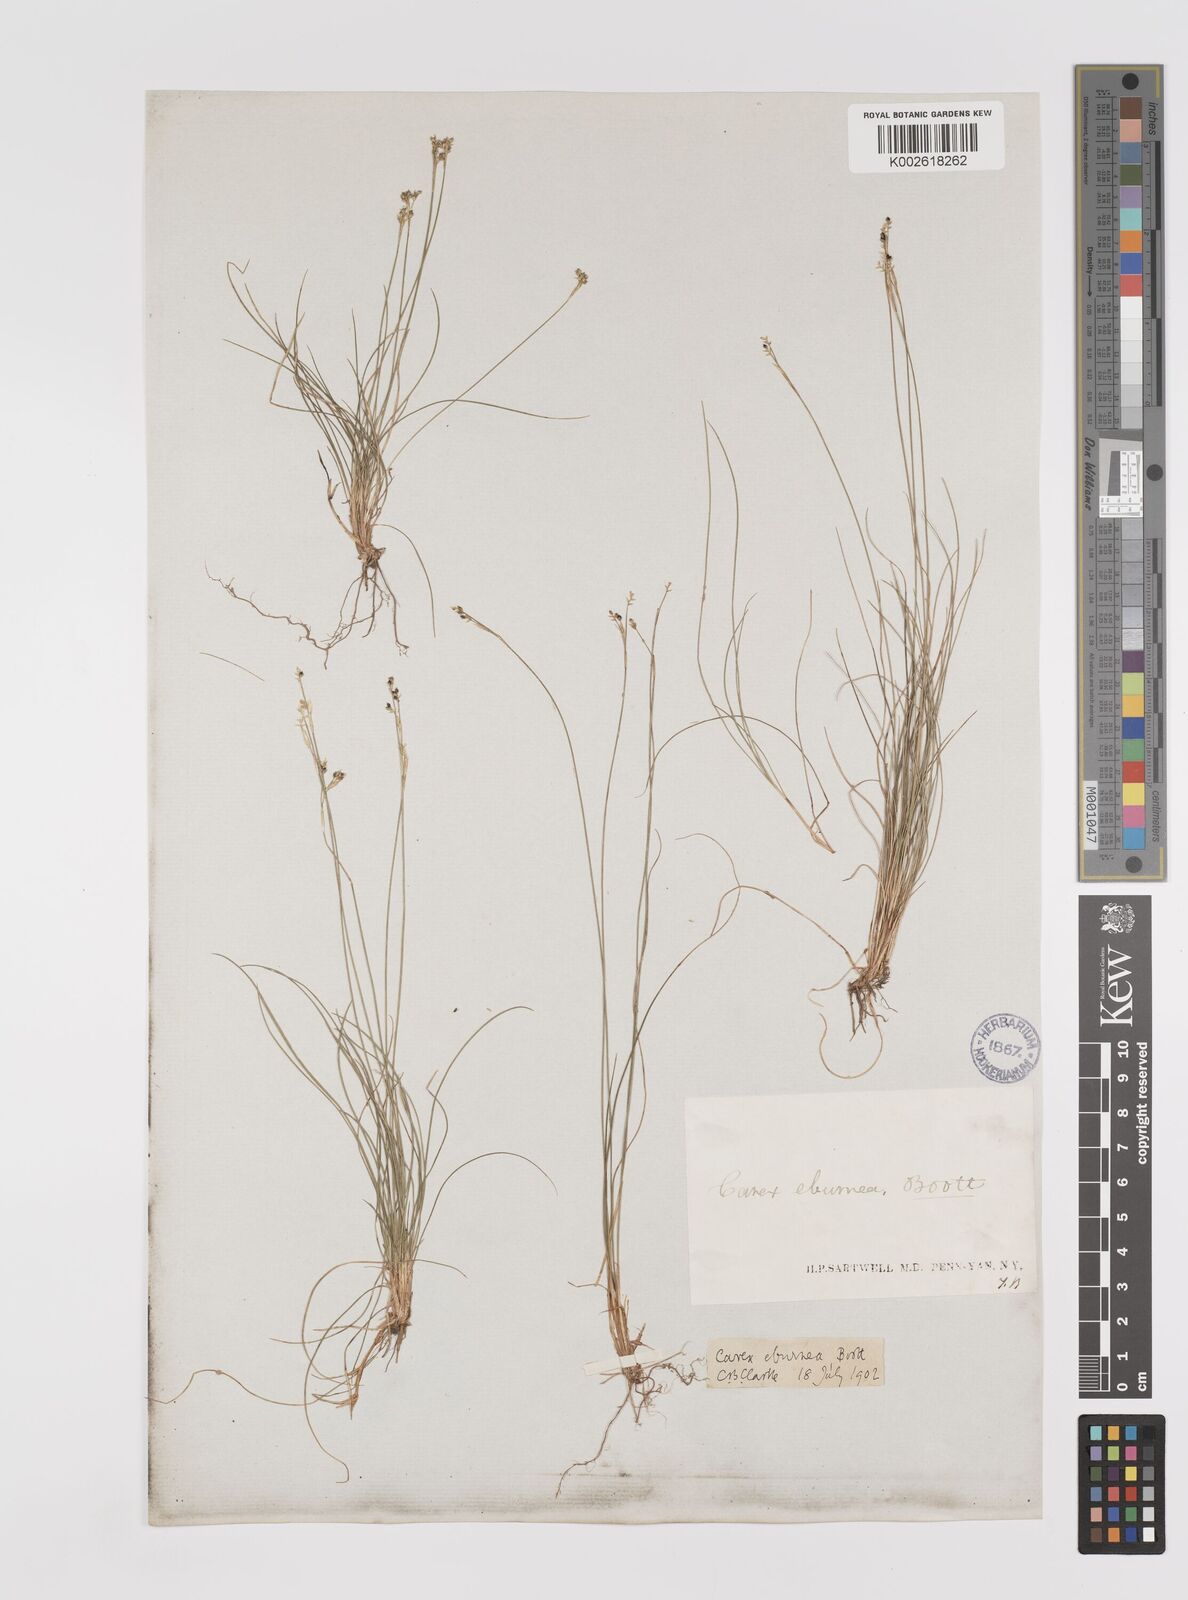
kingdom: Plantae
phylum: Tracheophyta
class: Liliopsida
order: Poales
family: Cyperaceae
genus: Carex
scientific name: Carex eburnea
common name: Bristle-leaved sedge
